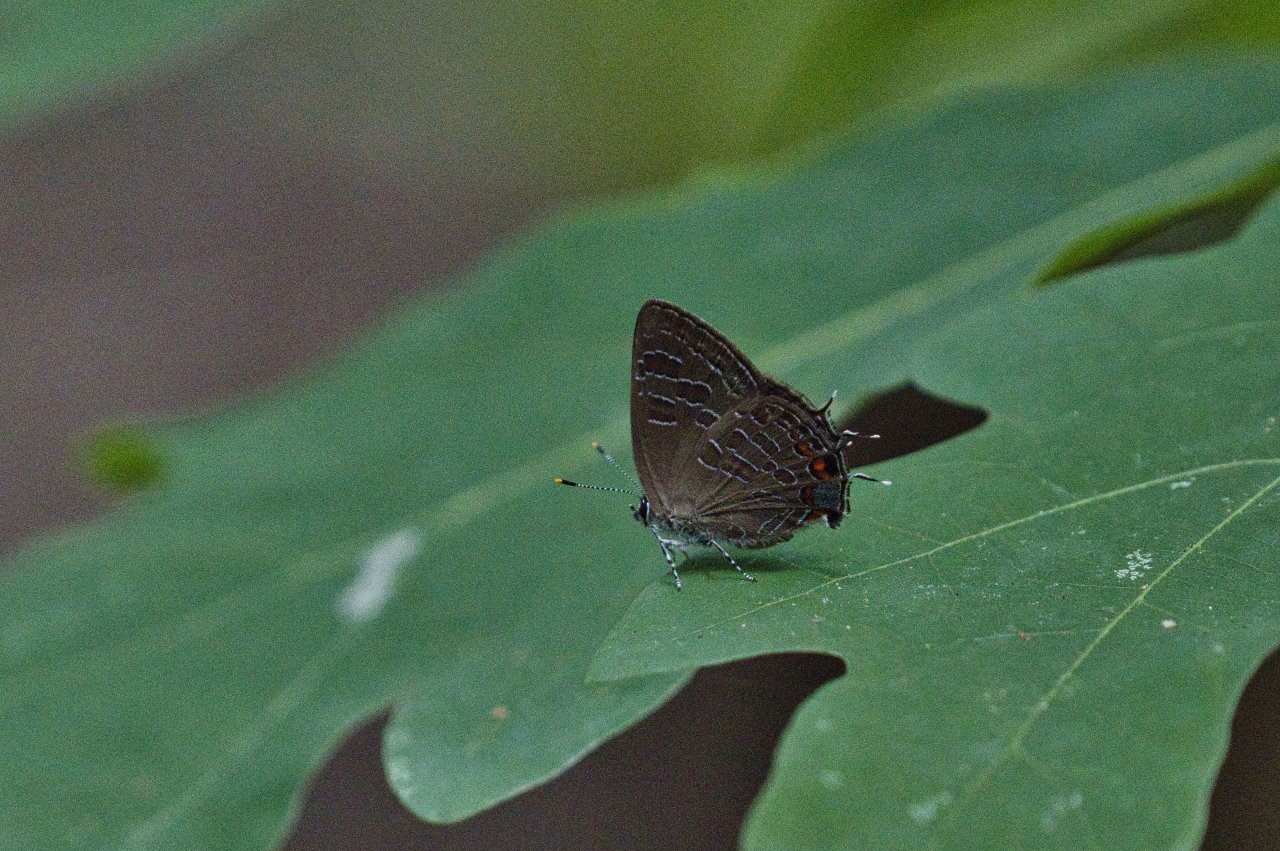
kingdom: Animalia
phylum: Arthropoda
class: Insecta
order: Lepidoptera
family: Lycaenidae
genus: Satyrium
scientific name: Satyrium liparops
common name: Striped Hairstreak
